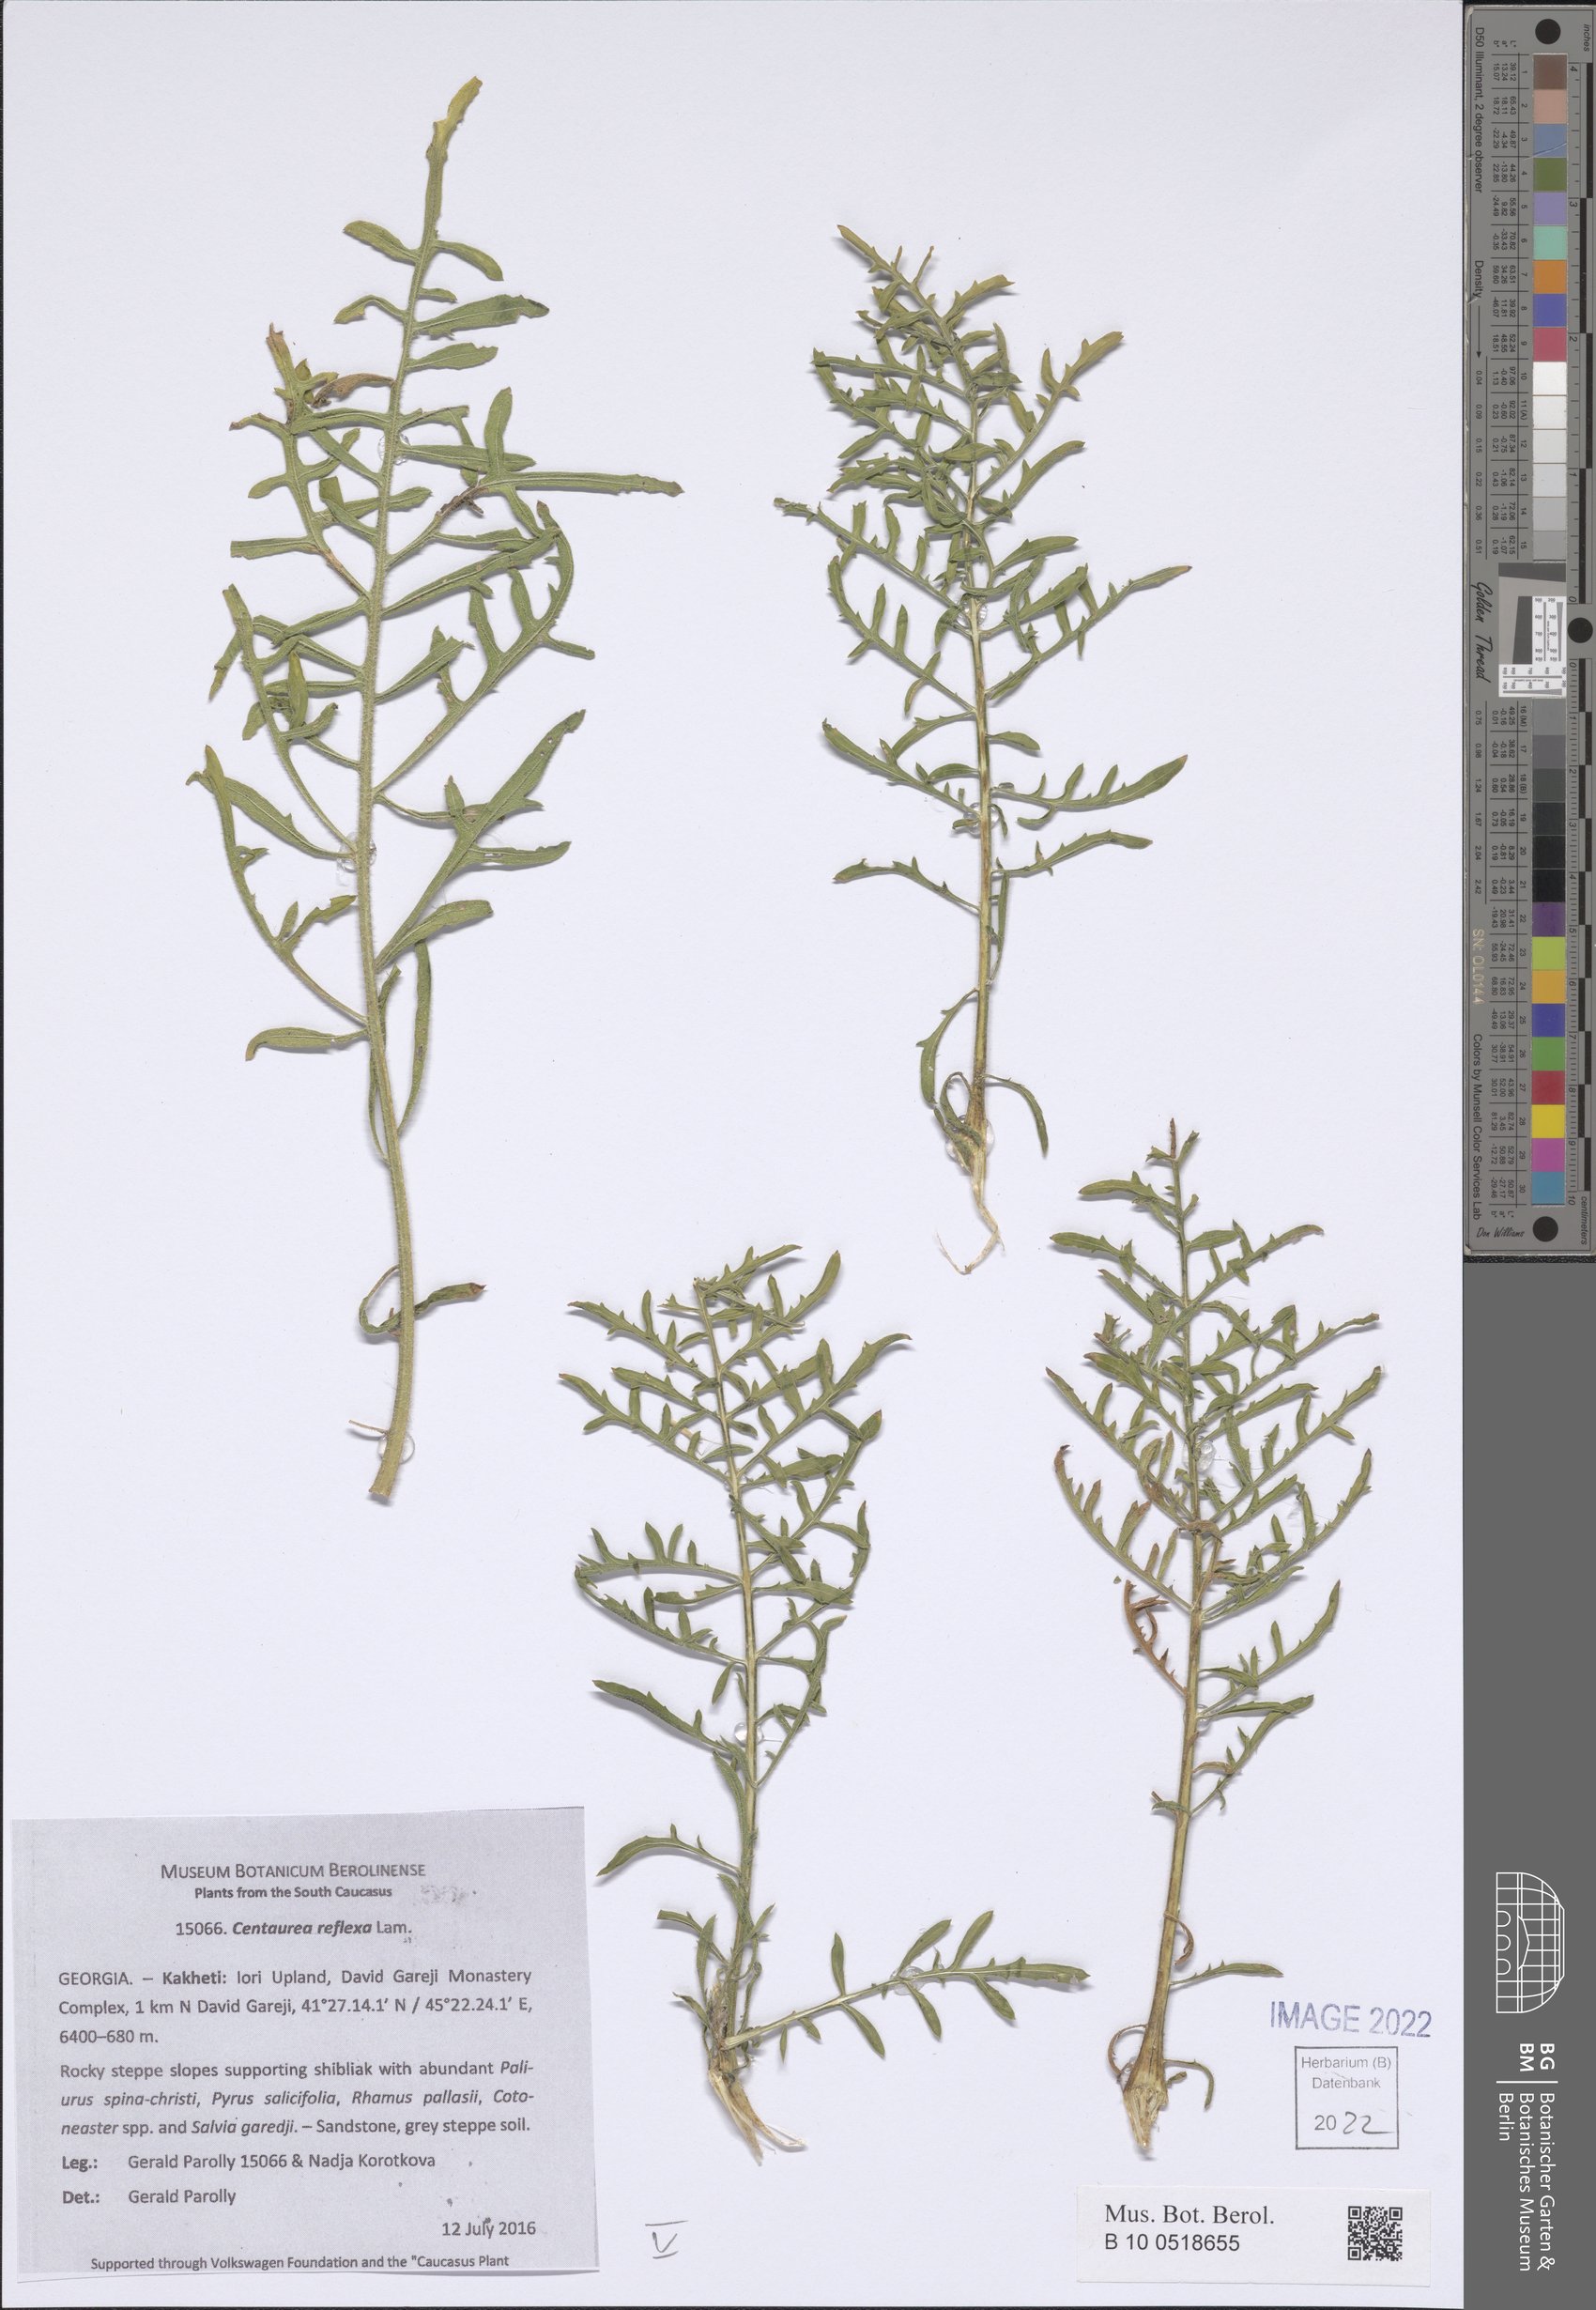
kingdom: Plantae
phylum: Tracheophyta
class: Magnoliopsida
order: Asterales
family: Asteraceae
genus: Centaurea
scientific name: Centaurea reflexa
